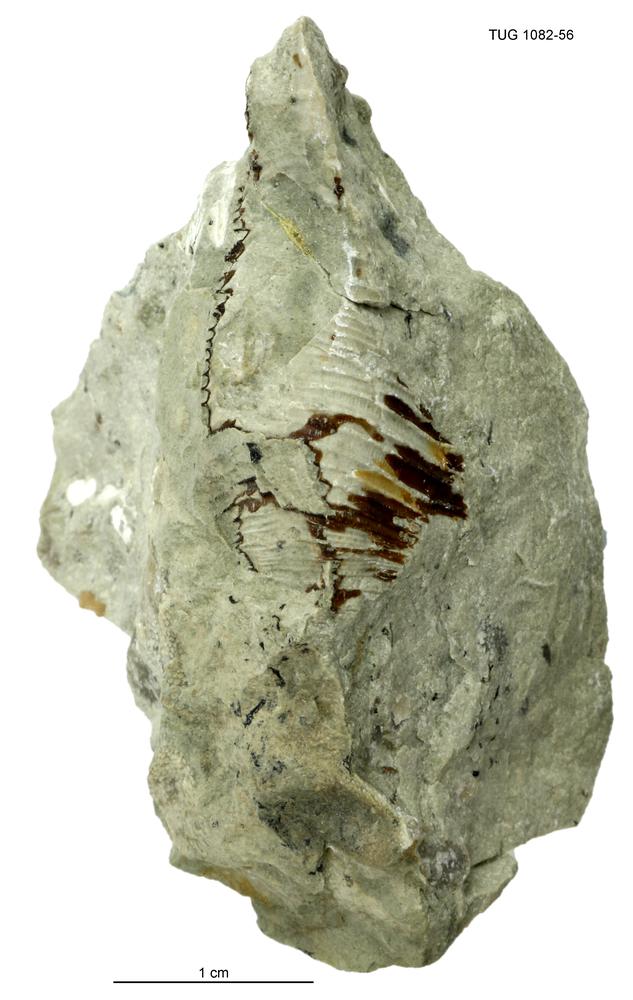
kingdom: Animalia
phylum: Cnidaria
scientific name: Cnidaria
